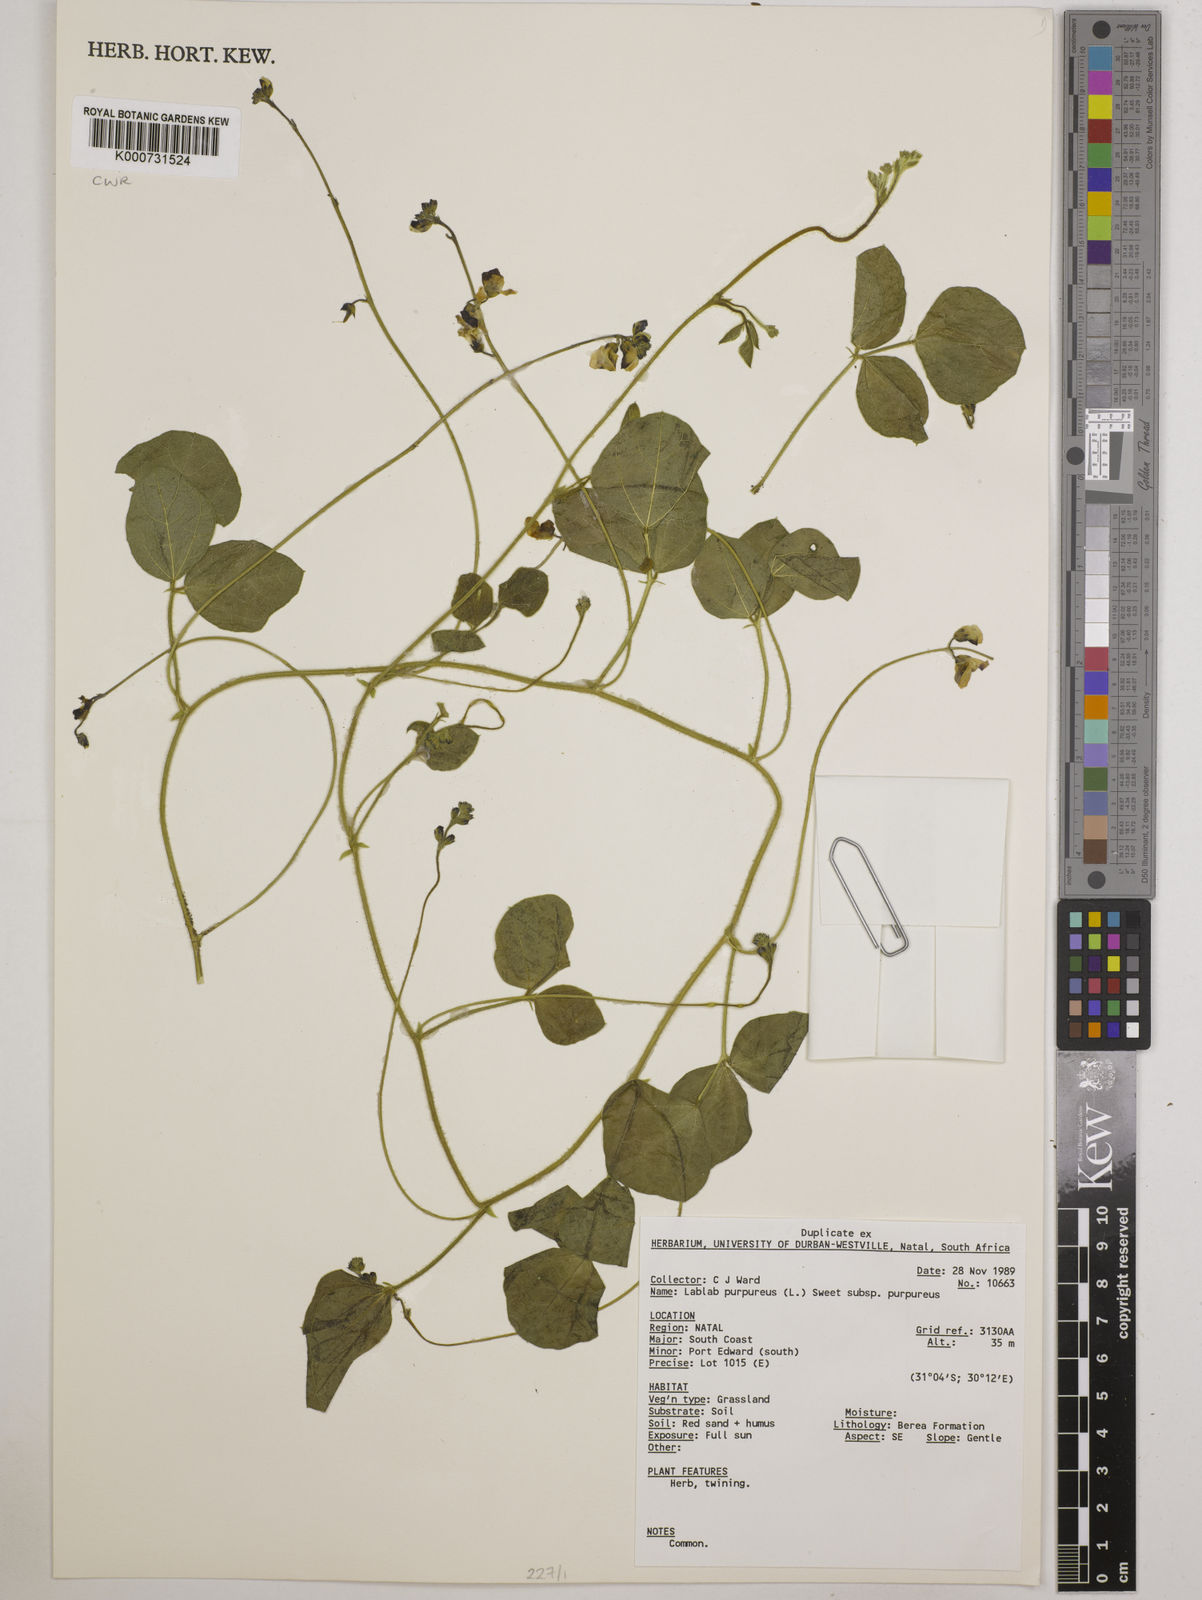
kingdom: Plantae
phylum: Tracheophyta
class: Magnoliopsida
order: Fabales
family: Fabaceae
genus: Lablab
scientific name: Lablab purpureus
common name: Lablab-bean
